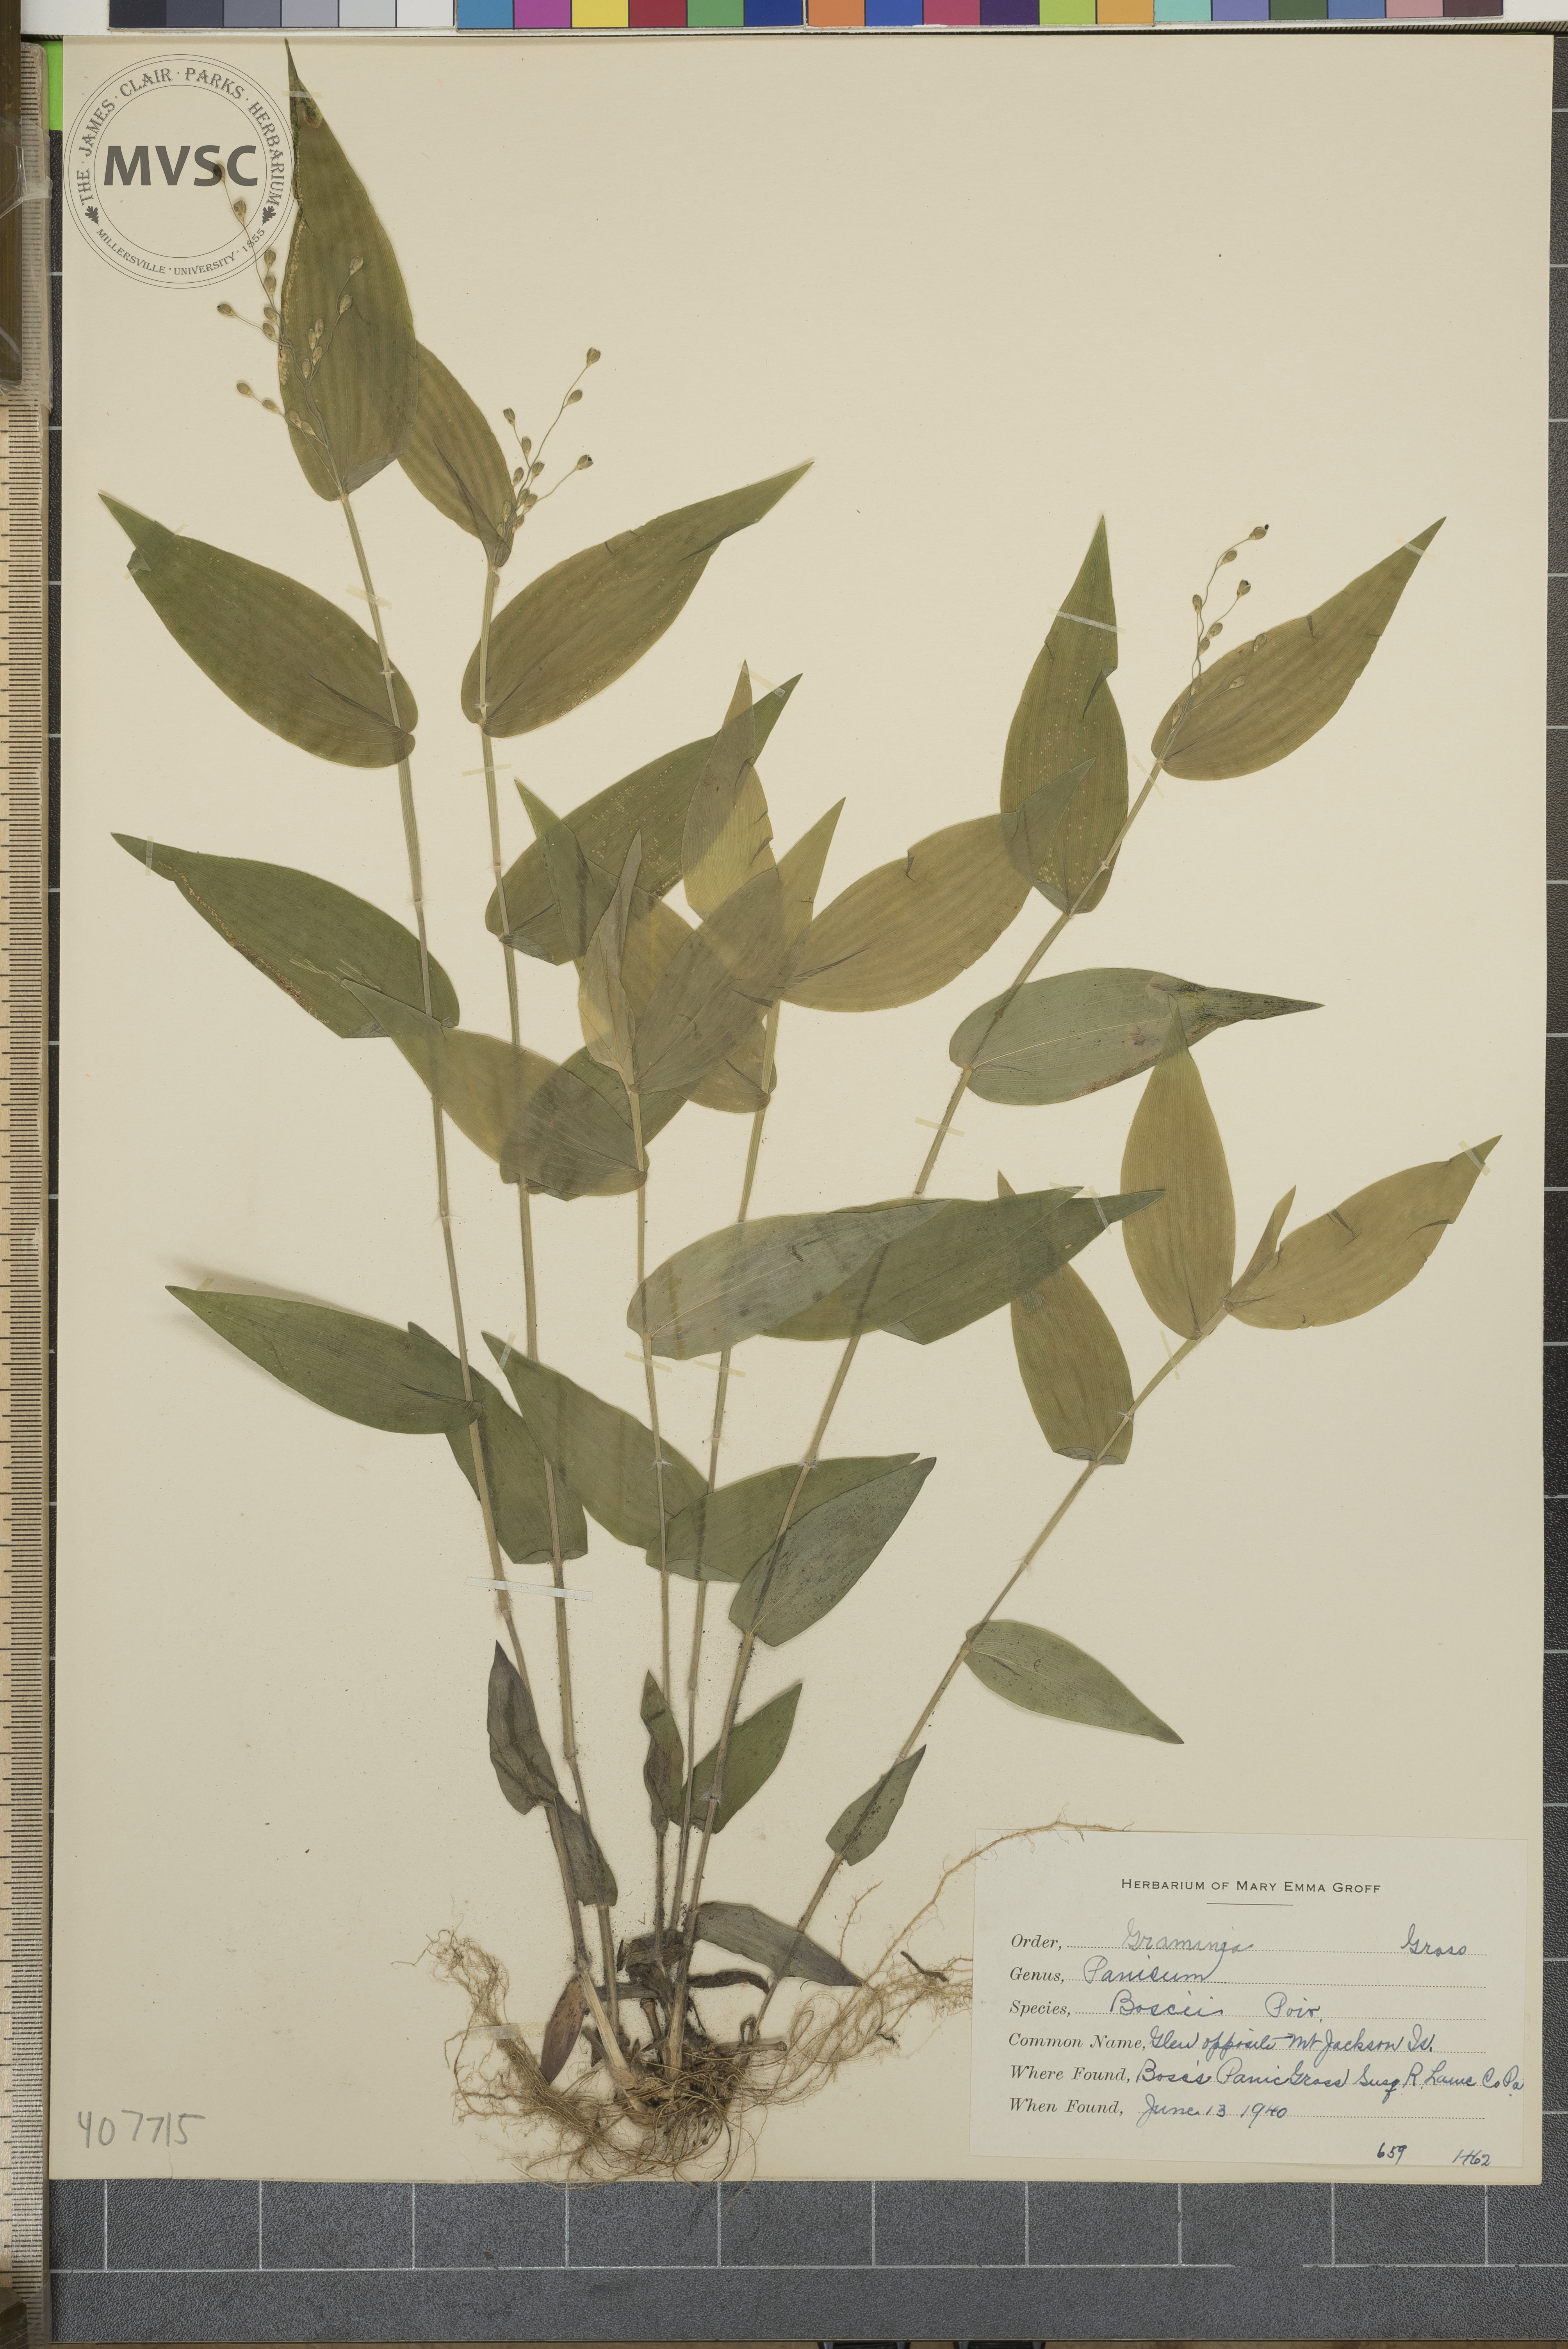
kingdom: Plantae
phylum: Tracheophyta
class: Liliopsida
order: Poales
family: Poaceae
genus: Dichanthelium
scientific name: Dichanthelium boscii
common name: Bosc's Panic Grass
